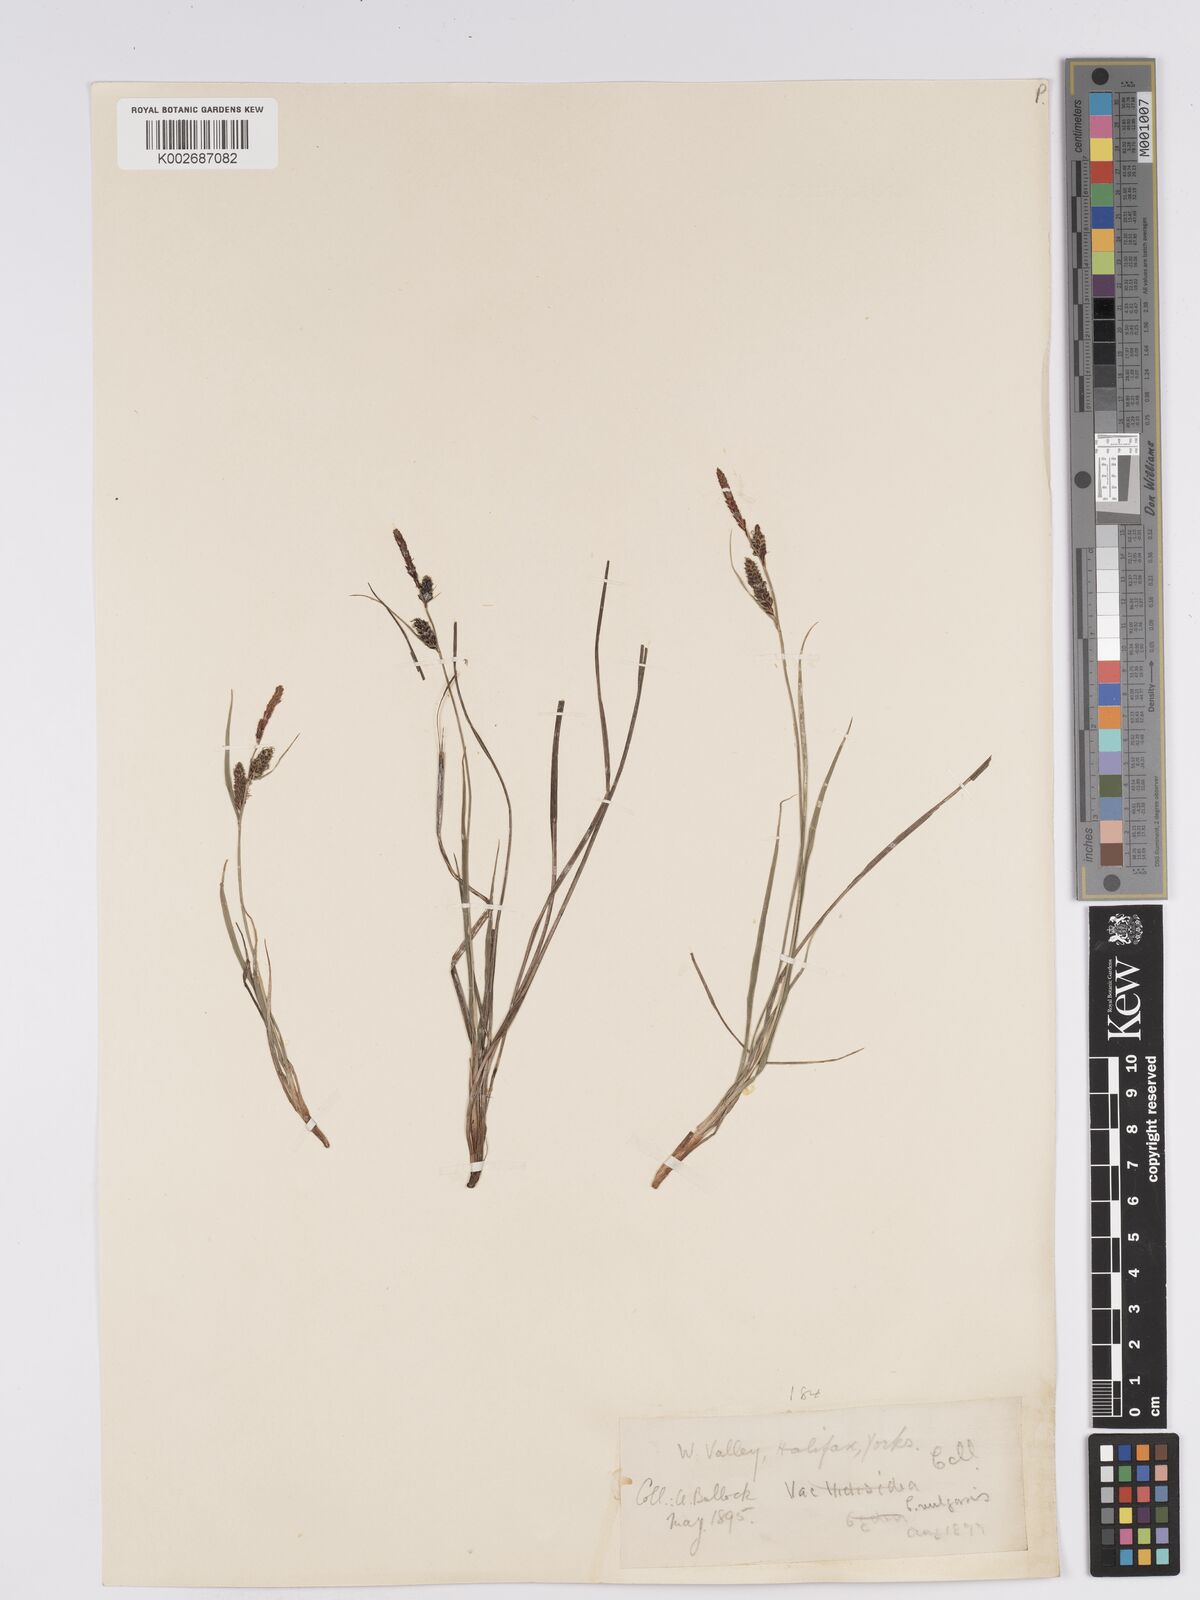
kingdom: Plantae
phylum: Tracheophyta
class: Liliopsida
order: Poales
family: Cyperaceae
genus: Carex
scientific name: Carex nigra
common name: Common sedge
